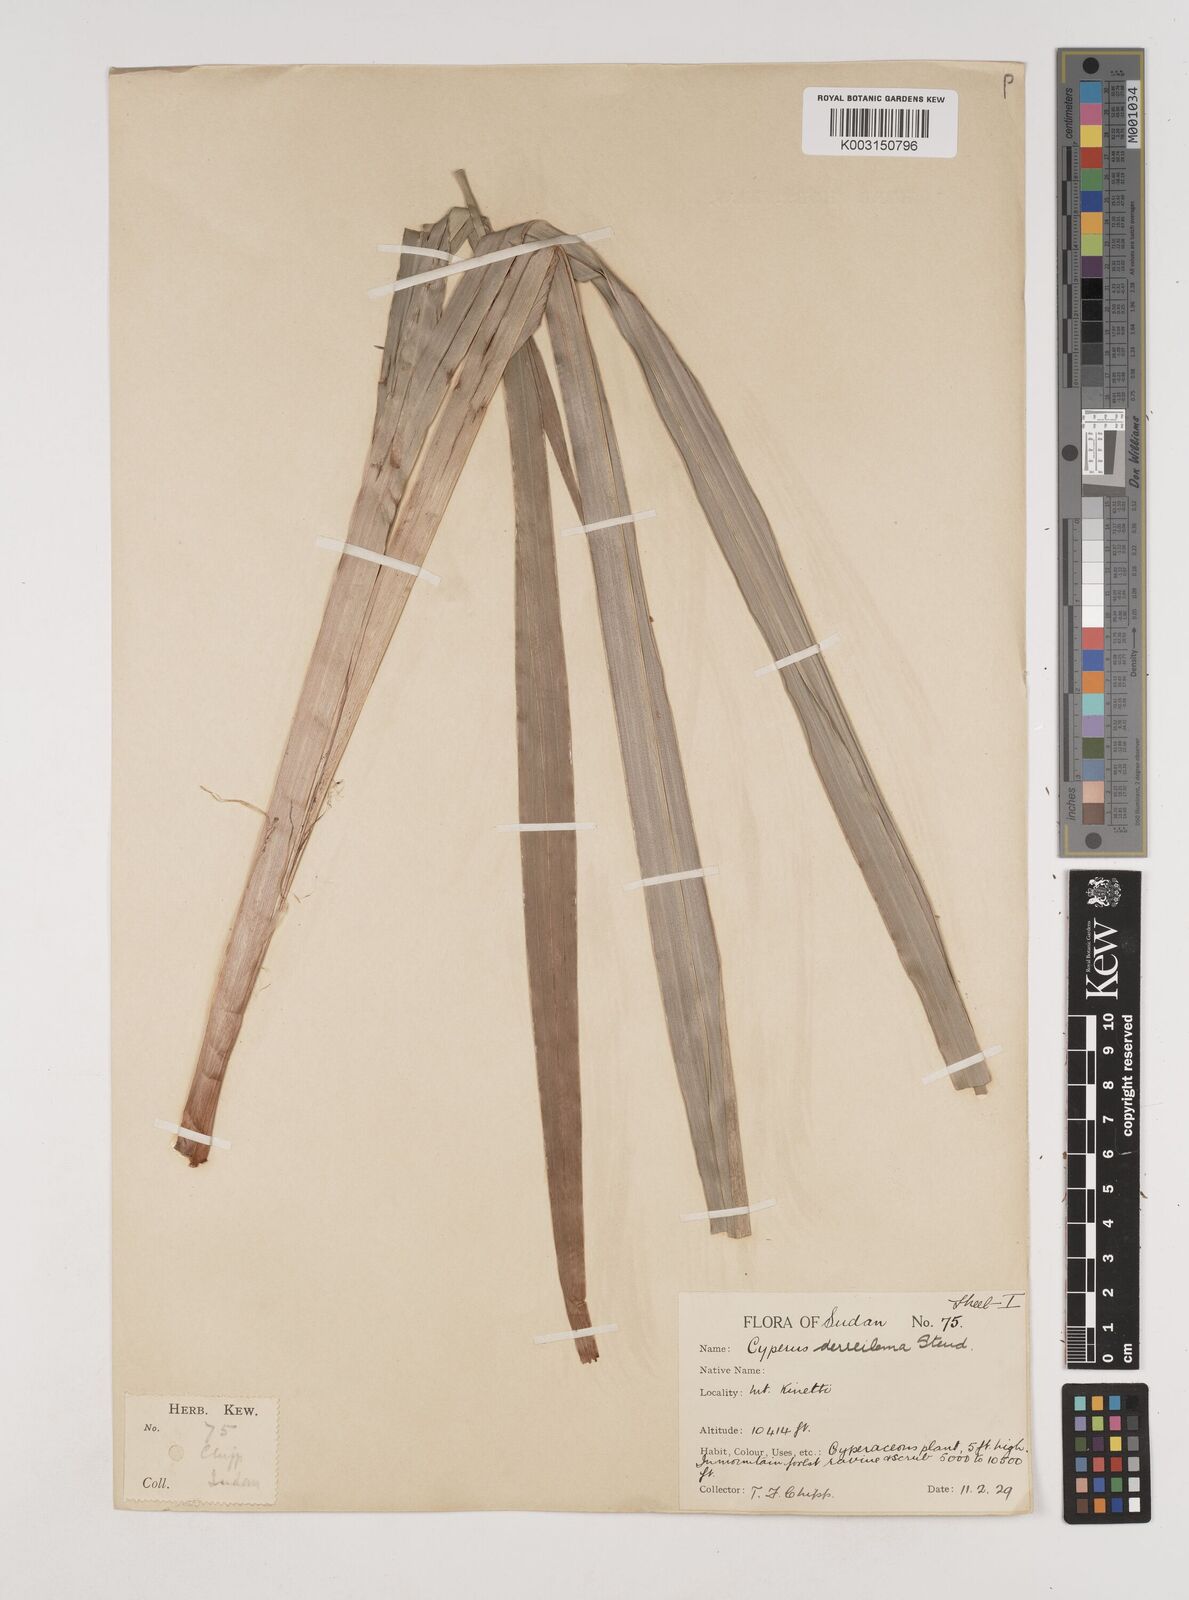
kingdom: Plantae
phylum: Tracheophyta
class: Liliopsida
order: Poales
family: Cyperaceae
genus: Cyperus
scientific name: Cyperus derreilema
